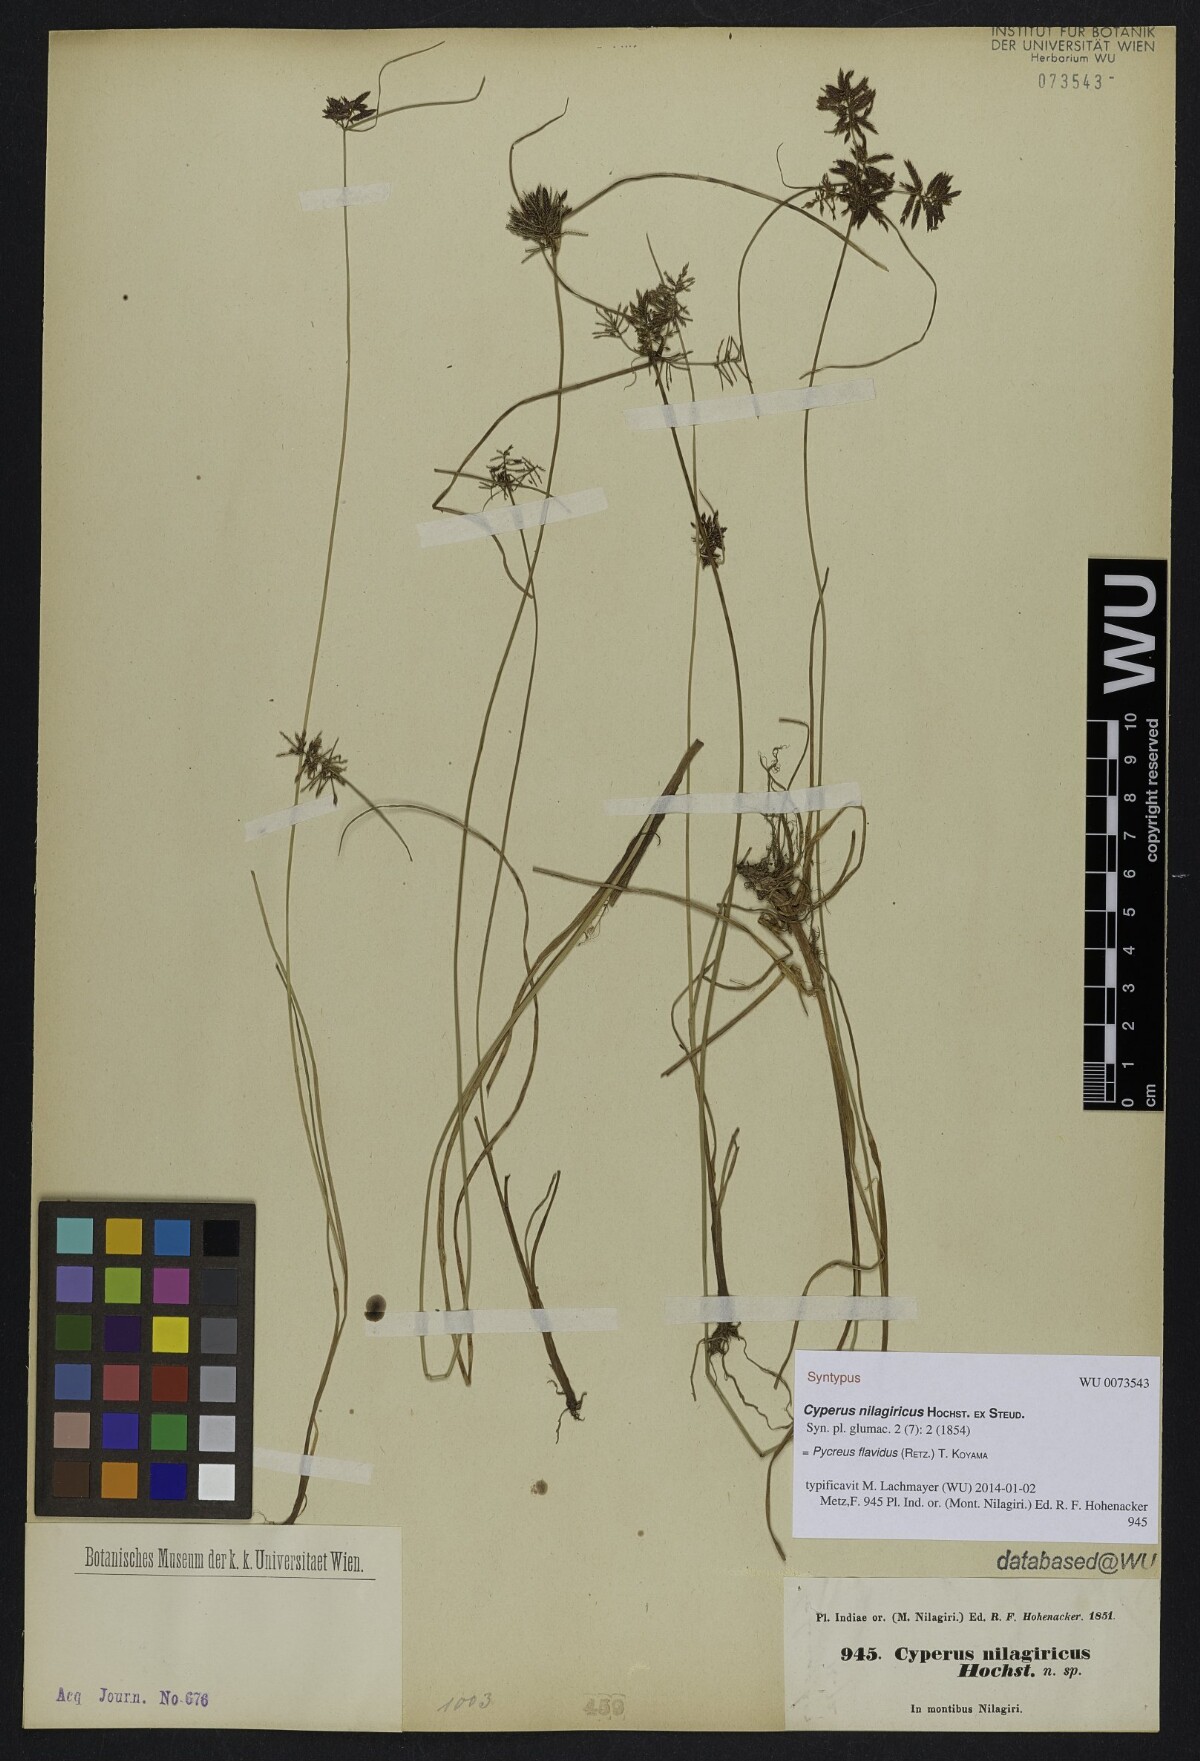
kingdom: Plantae
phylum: Tracheophyta
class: Liliopsida
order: Poales
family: Cyperaceae
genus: Cyperus
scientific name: Cyperus flavidus
